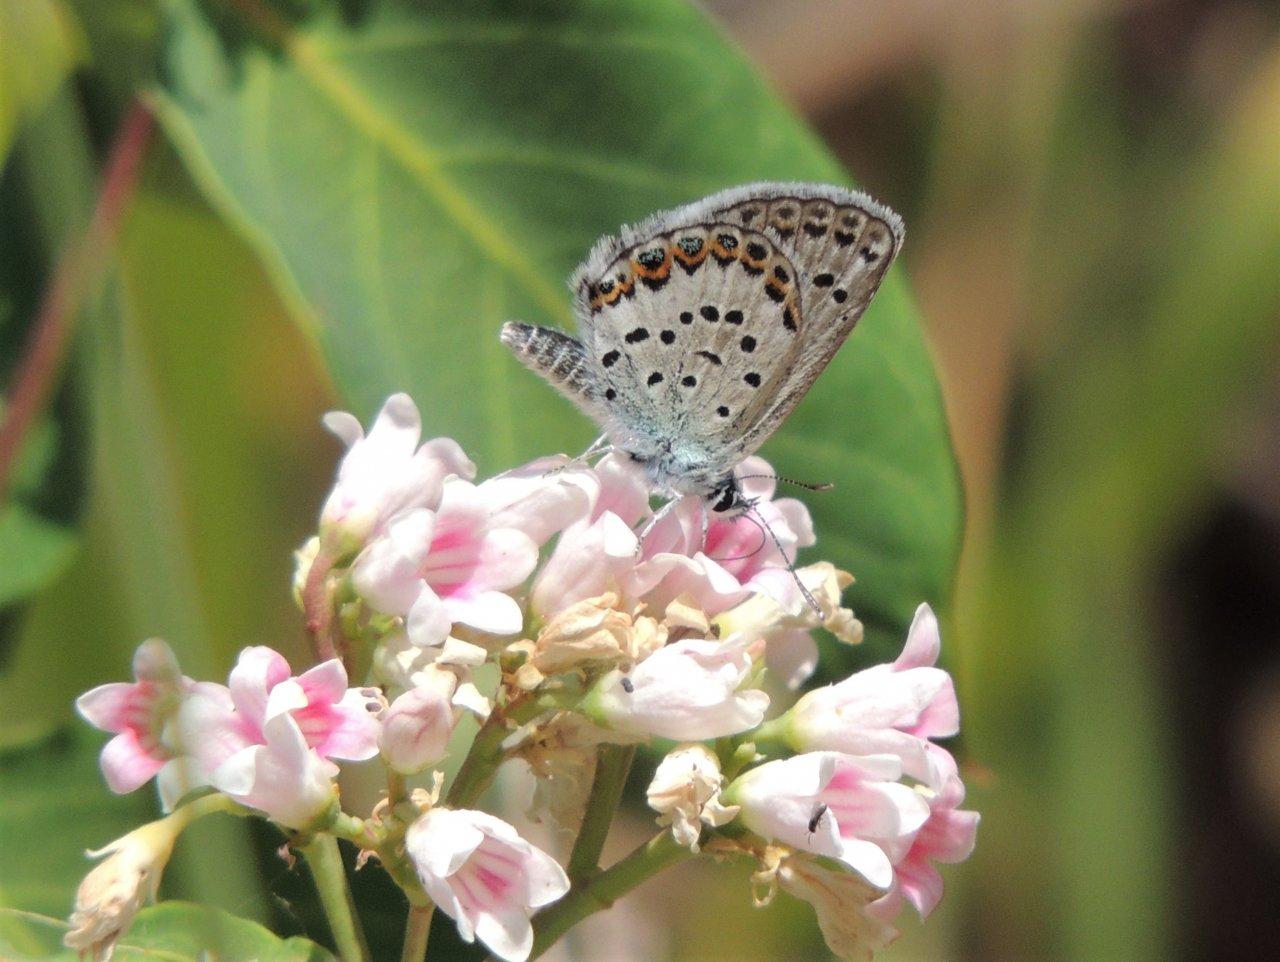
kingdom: Animalia
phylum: Arthropoda
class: Insecta
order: Lepidoptera
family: Lycaenidae
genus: Plebejus
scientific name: Plebejus lupini
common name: Lupine Blue
